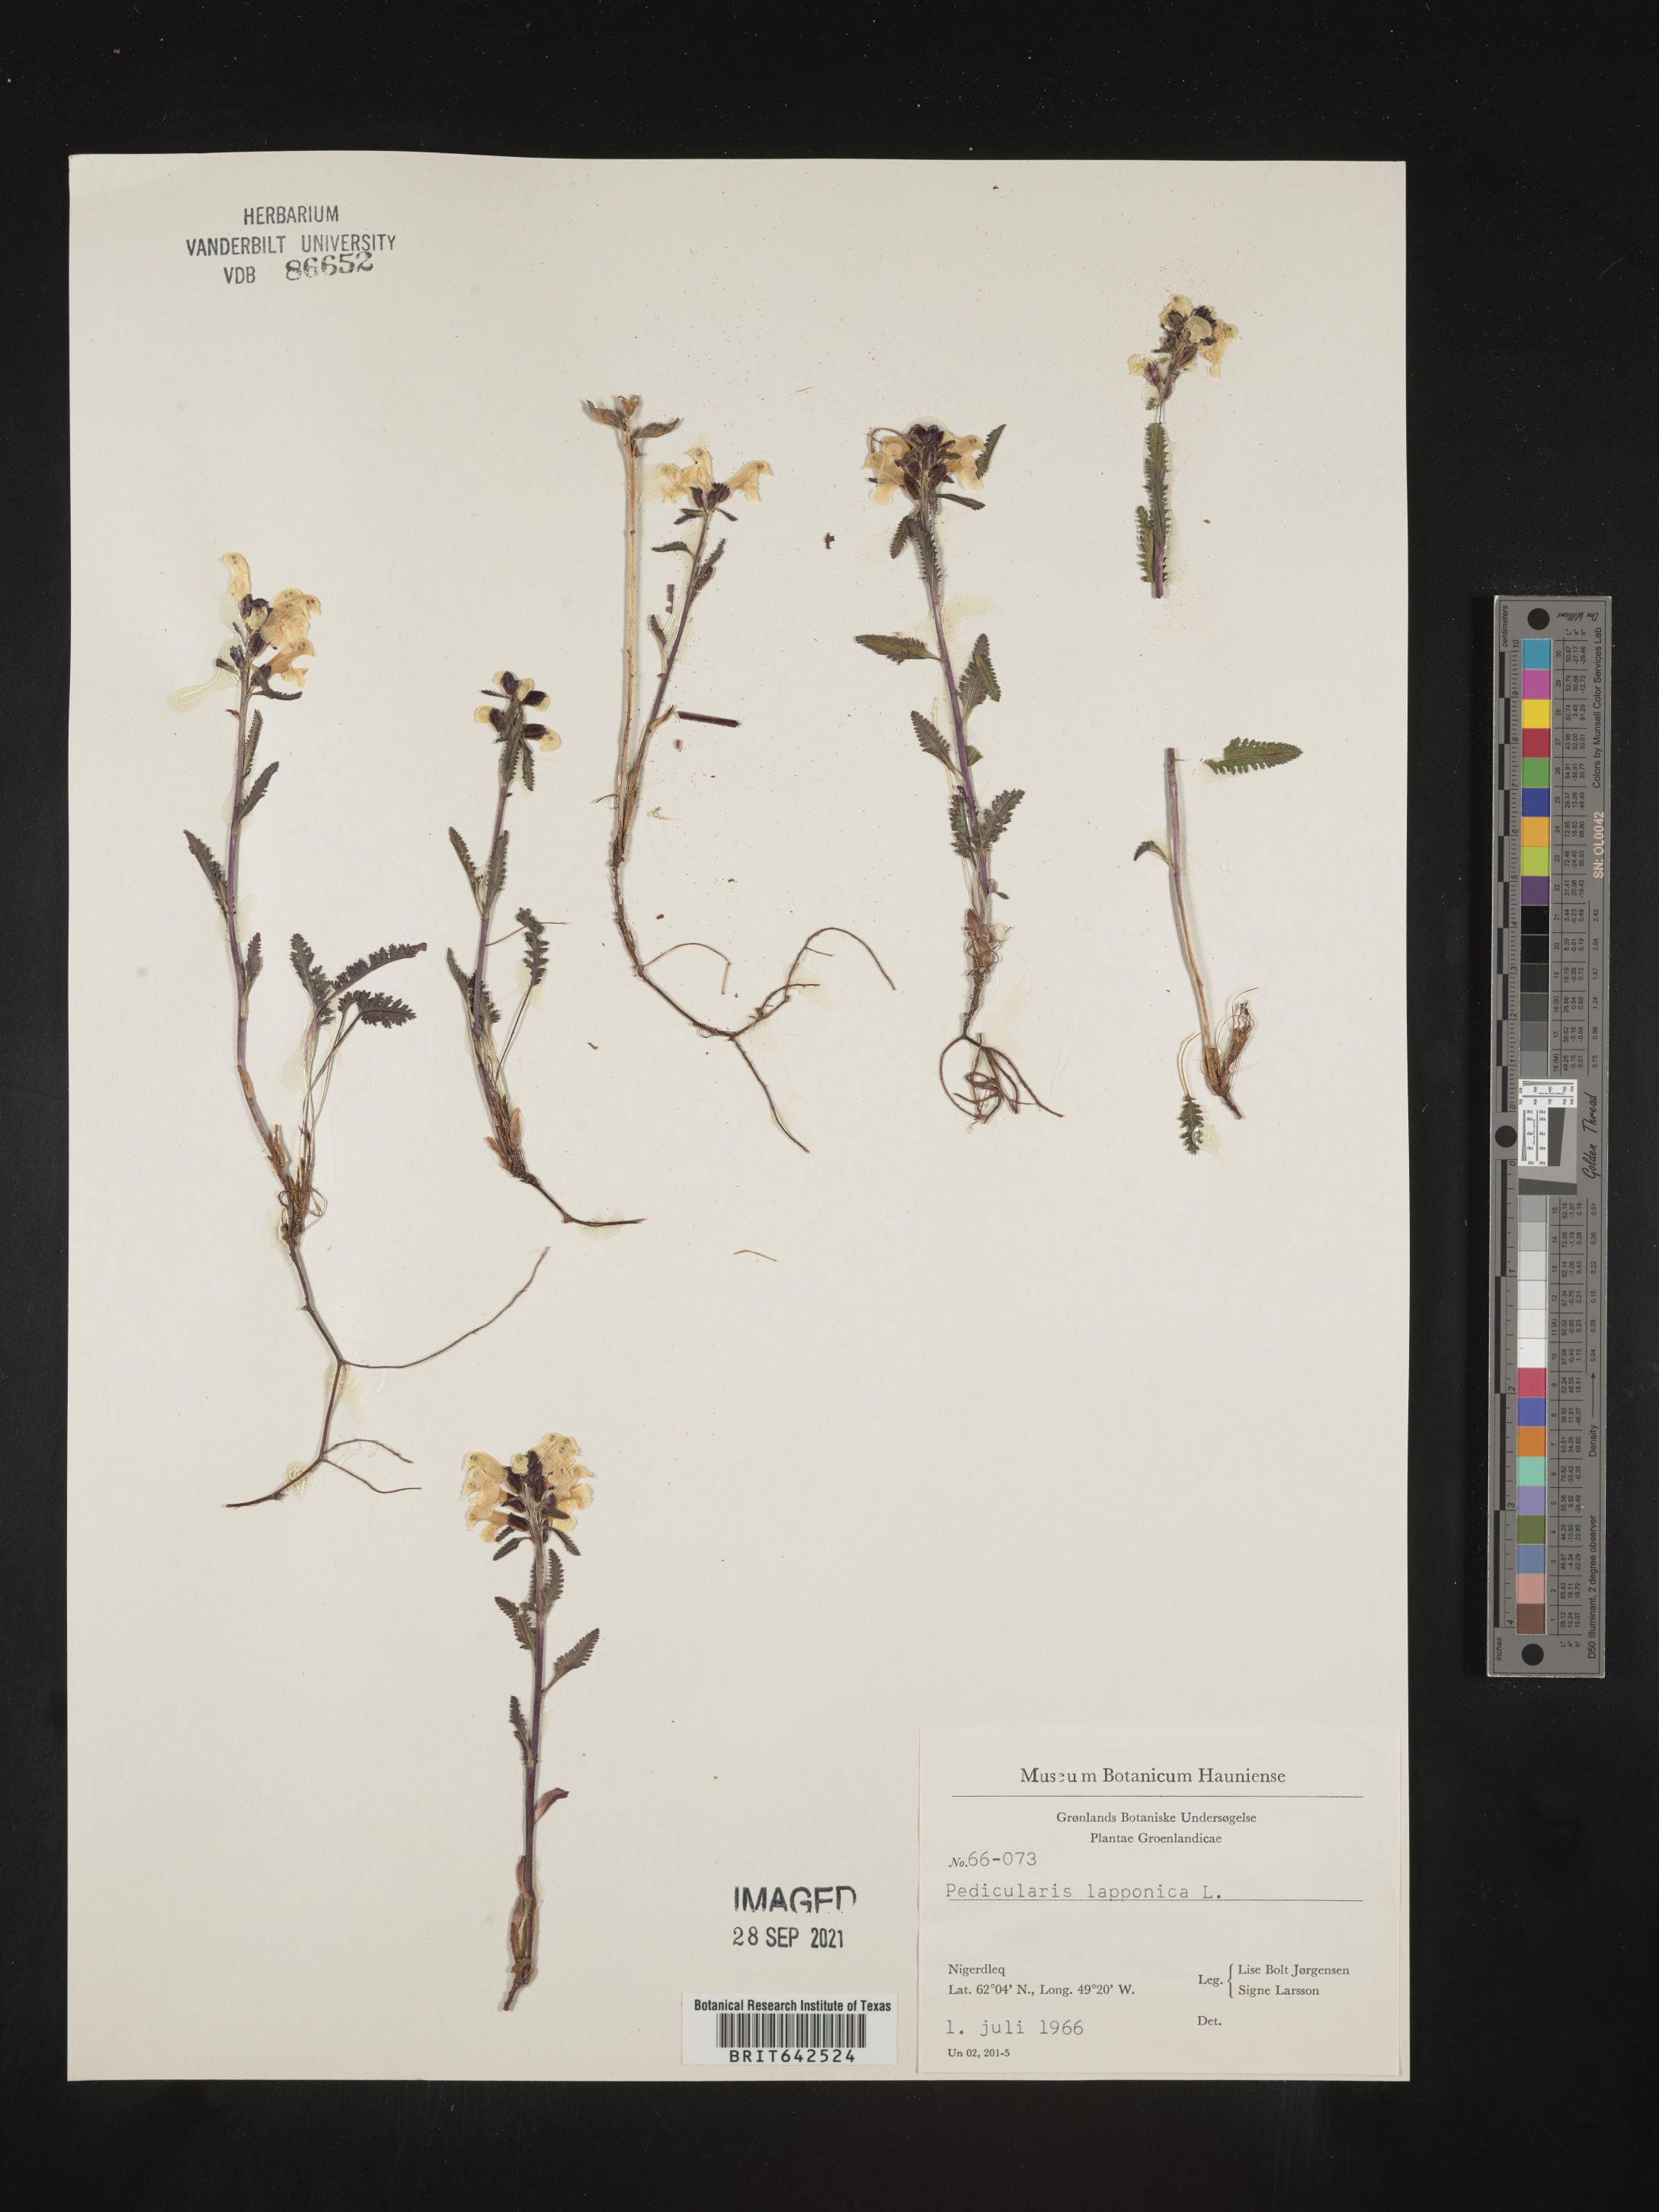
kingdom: Plantae
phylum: Tracheophyta
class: Magnoliopsida
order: Lamiales
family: Orobanchaceae
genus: Pedicularis
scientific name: Pedicularis
